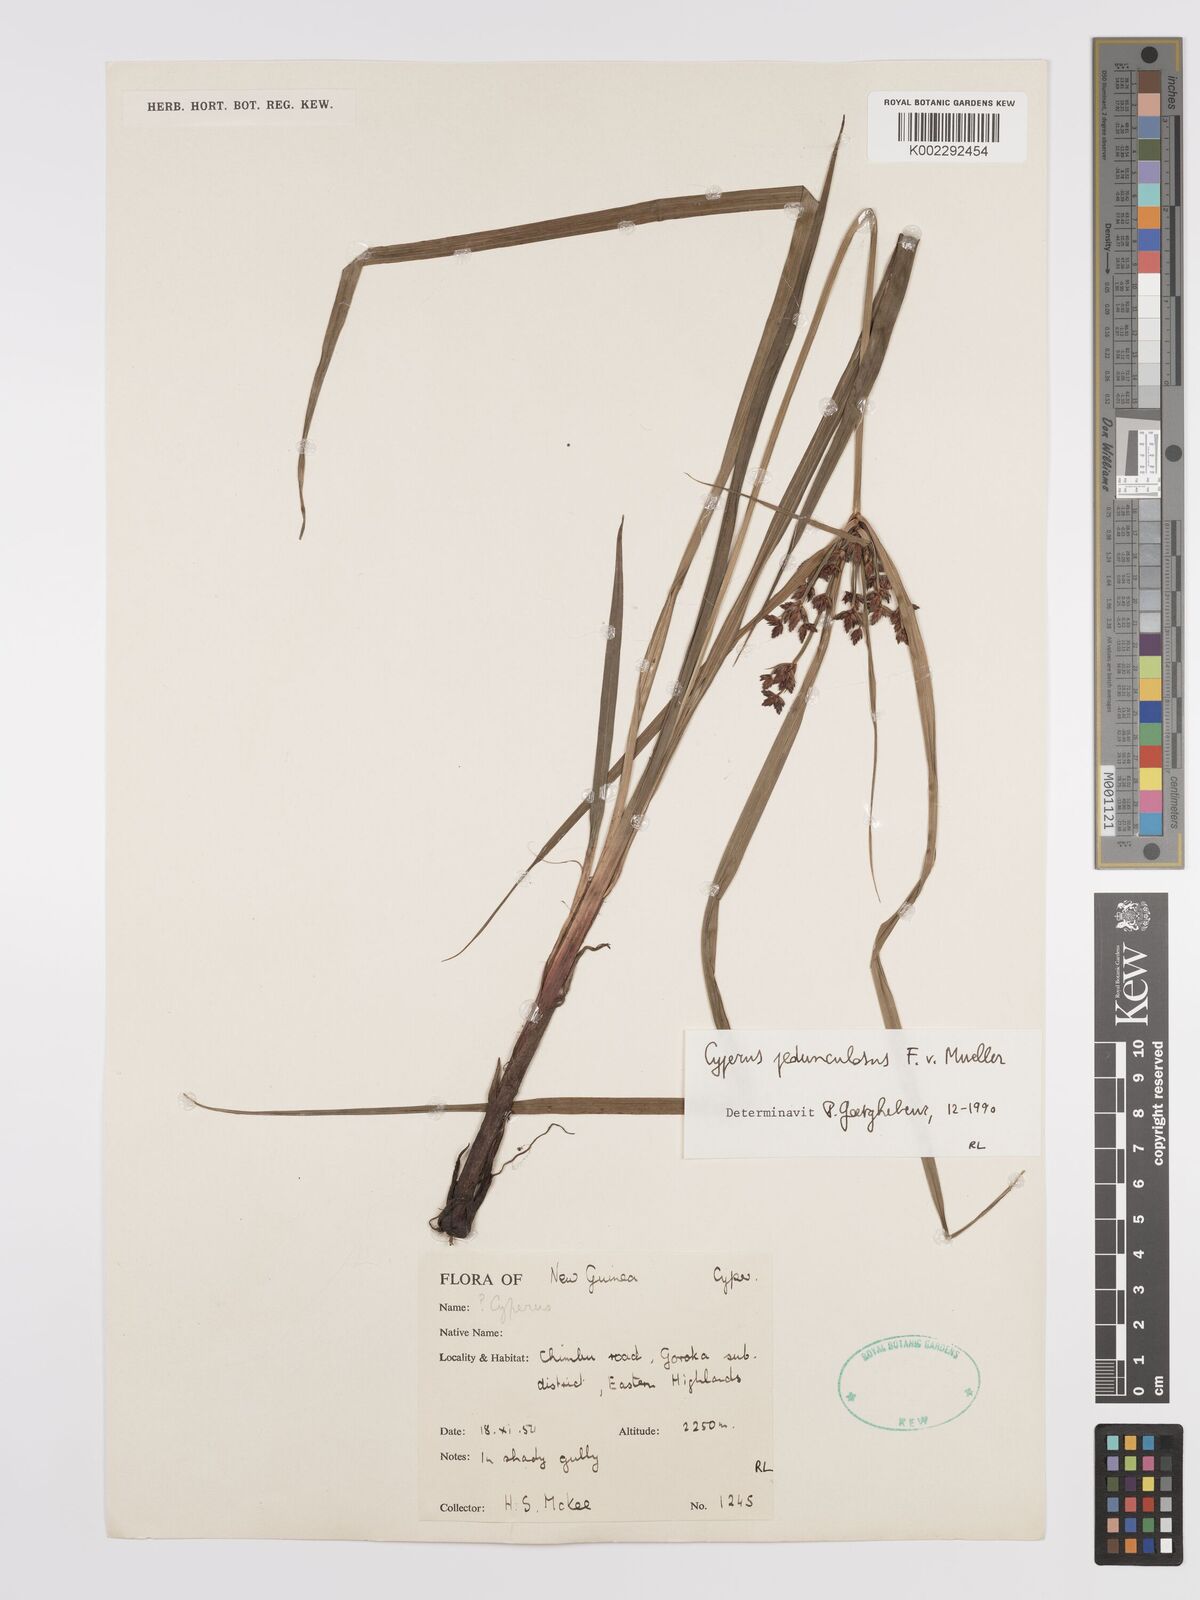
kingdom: Plantae
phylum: Tracheophyta
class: Liliopsida
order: Poales
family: Cyperaceae
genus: Cyperus
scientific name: Cyperus pedunculosus
